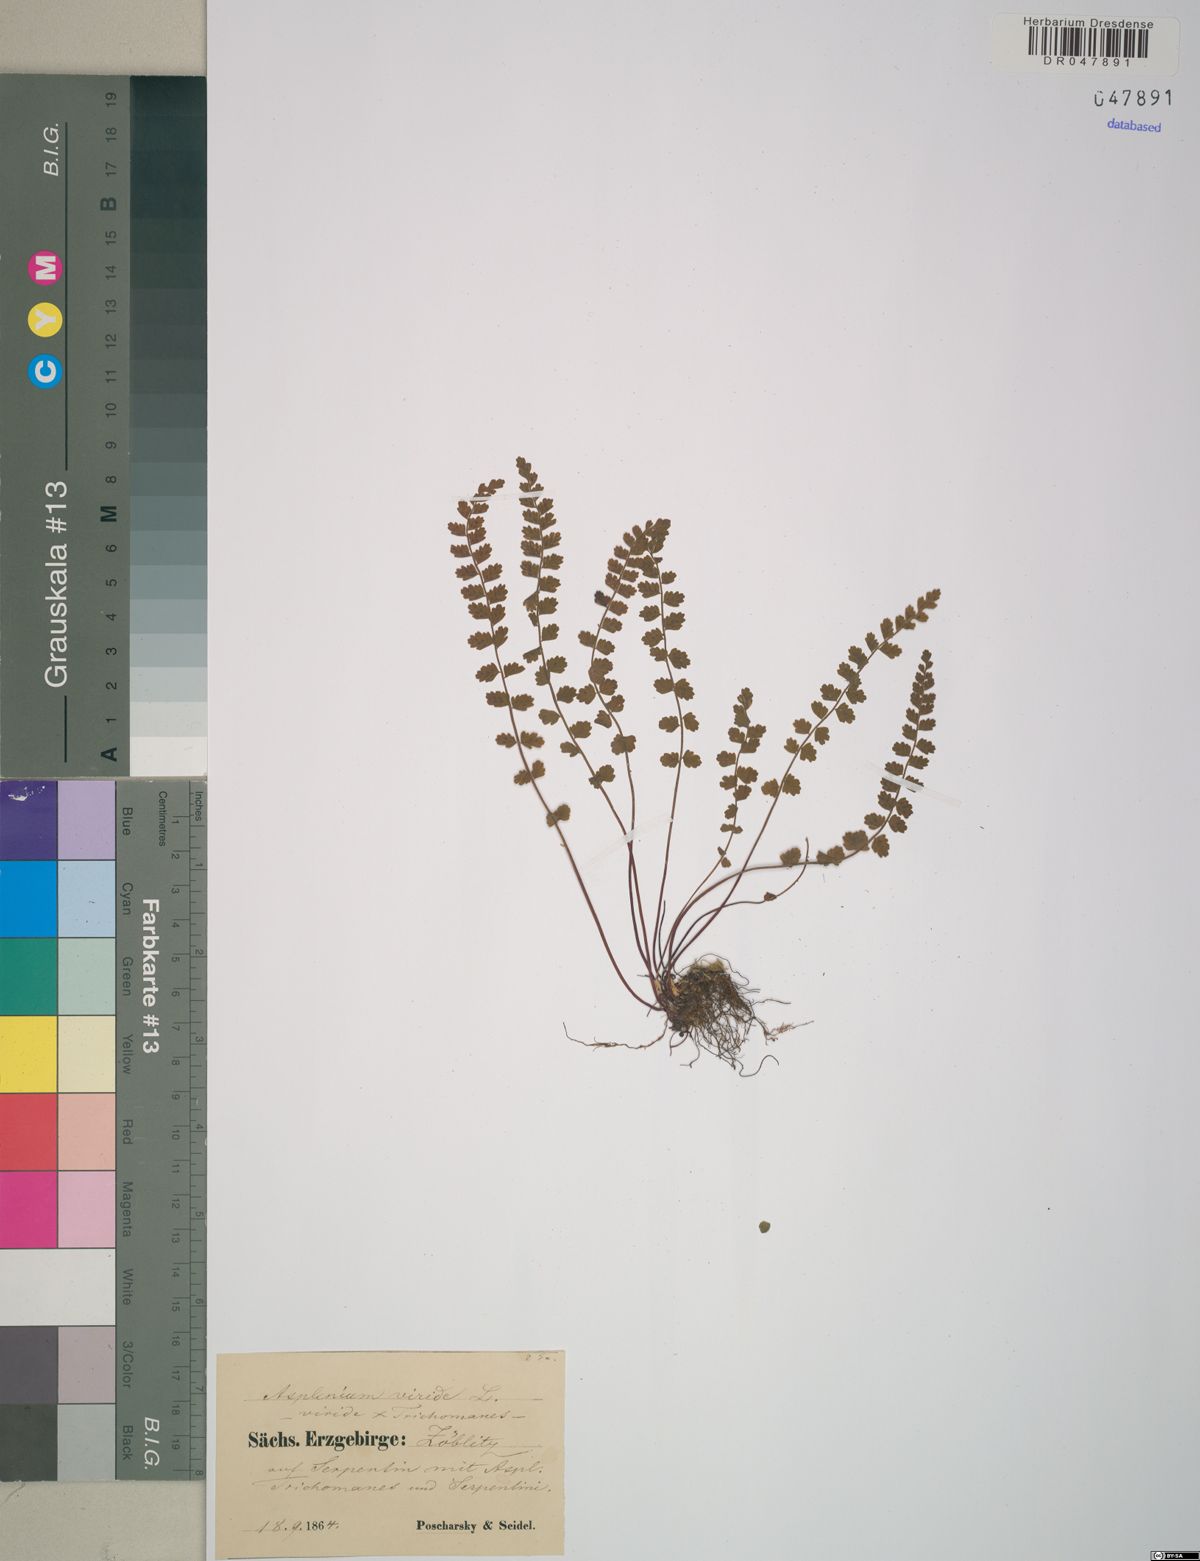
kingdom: Plantae
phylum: Tracheophyta
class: Polypodiopsida
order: Polypodiales
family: Aspleniaceae
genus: Asplenium
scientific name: Asplenium viride
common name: Green spleenwort
